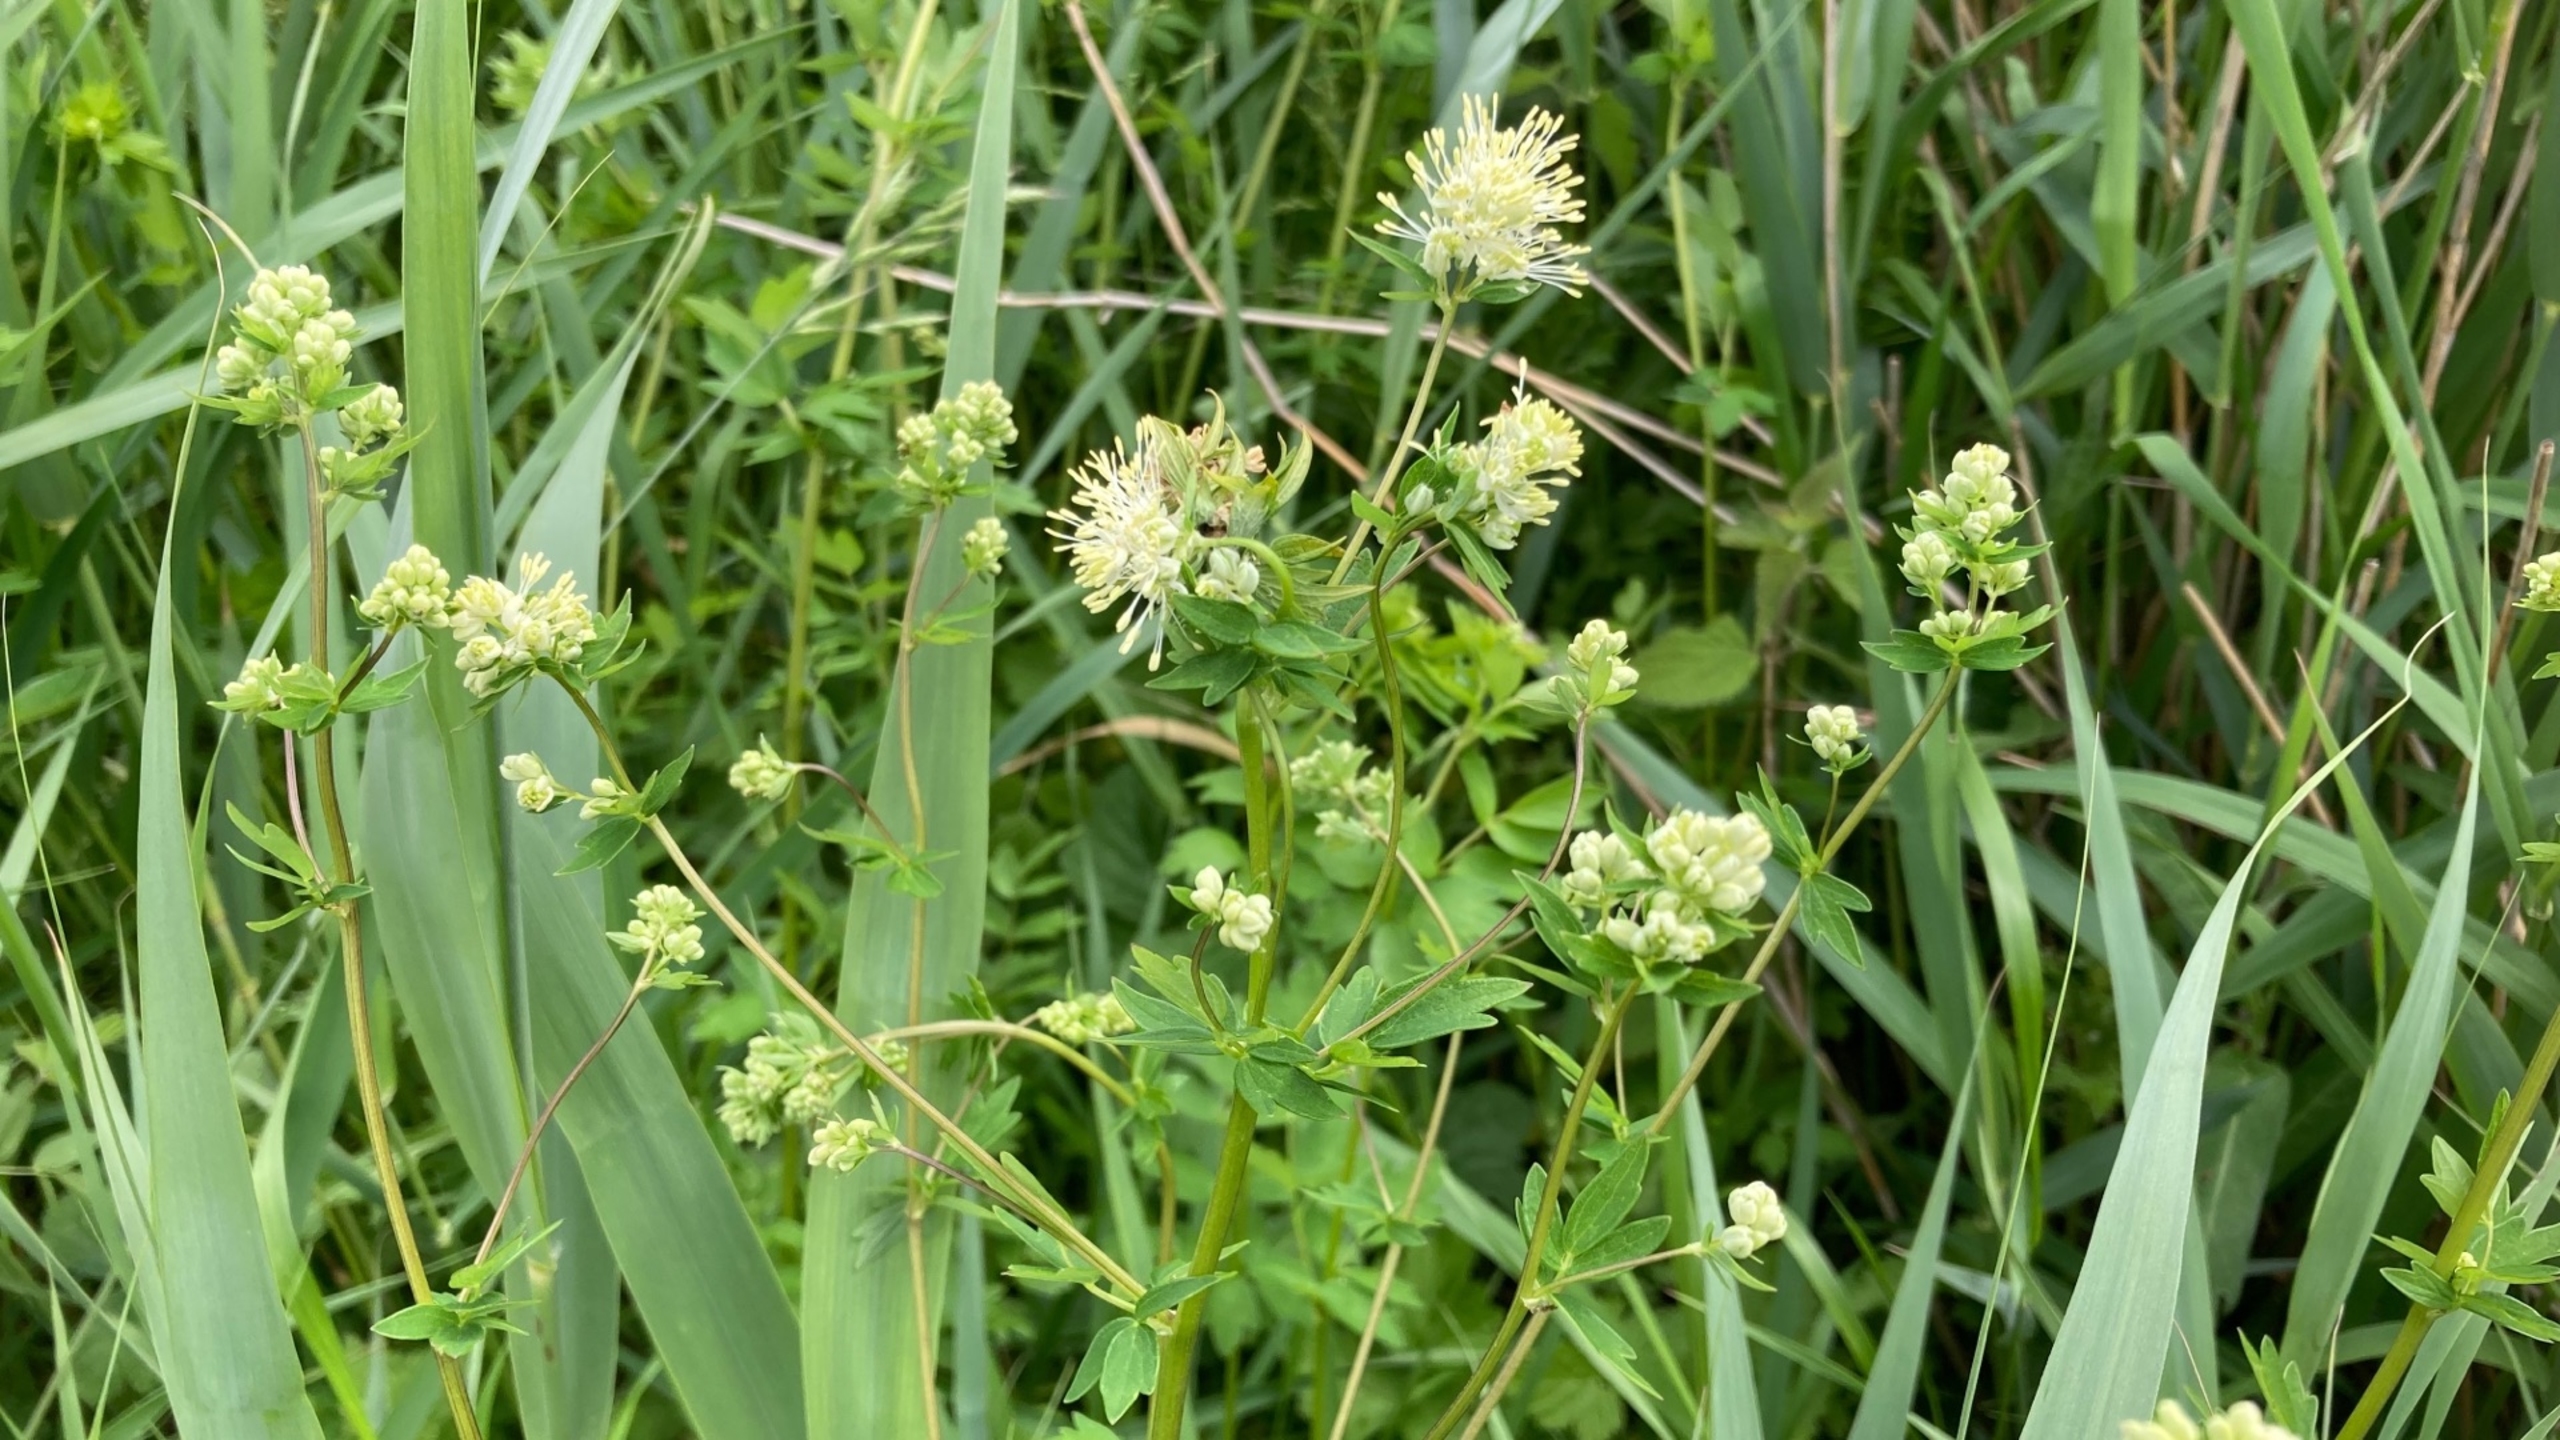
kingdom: Plantae
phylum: Tracheophyta
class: Magnoliopsida
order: Ranunculales
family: Ranunculaceae
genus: Thalictrum
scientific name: Thalictrum flavum
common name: Gul frøstjerne
